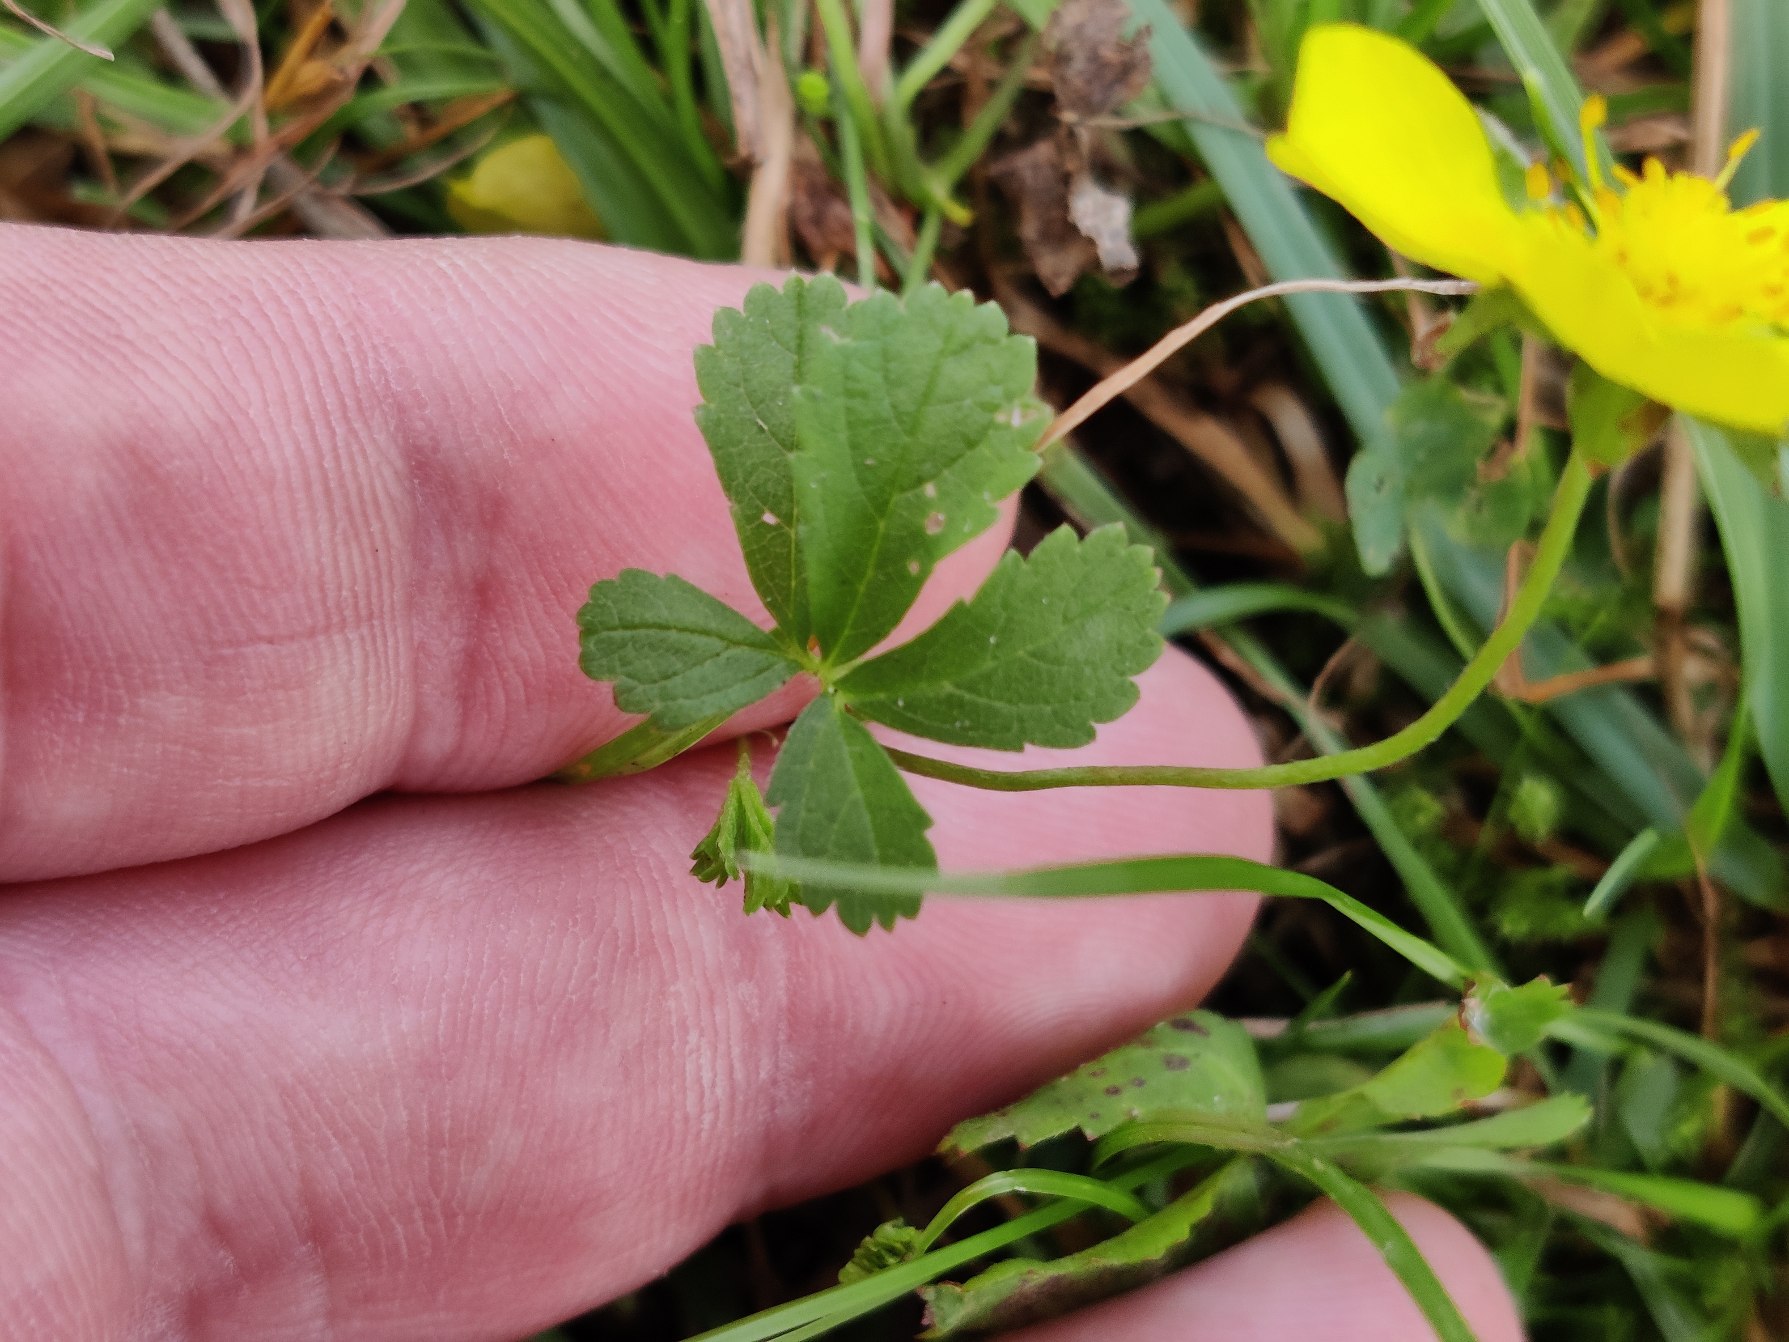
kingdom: Plantae
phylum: Tracheophyta
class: Magnoliopsida
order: Rosales
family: Rosaceae
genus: Potentilla
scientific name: Potentilla reptans
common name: Krybende potentil
